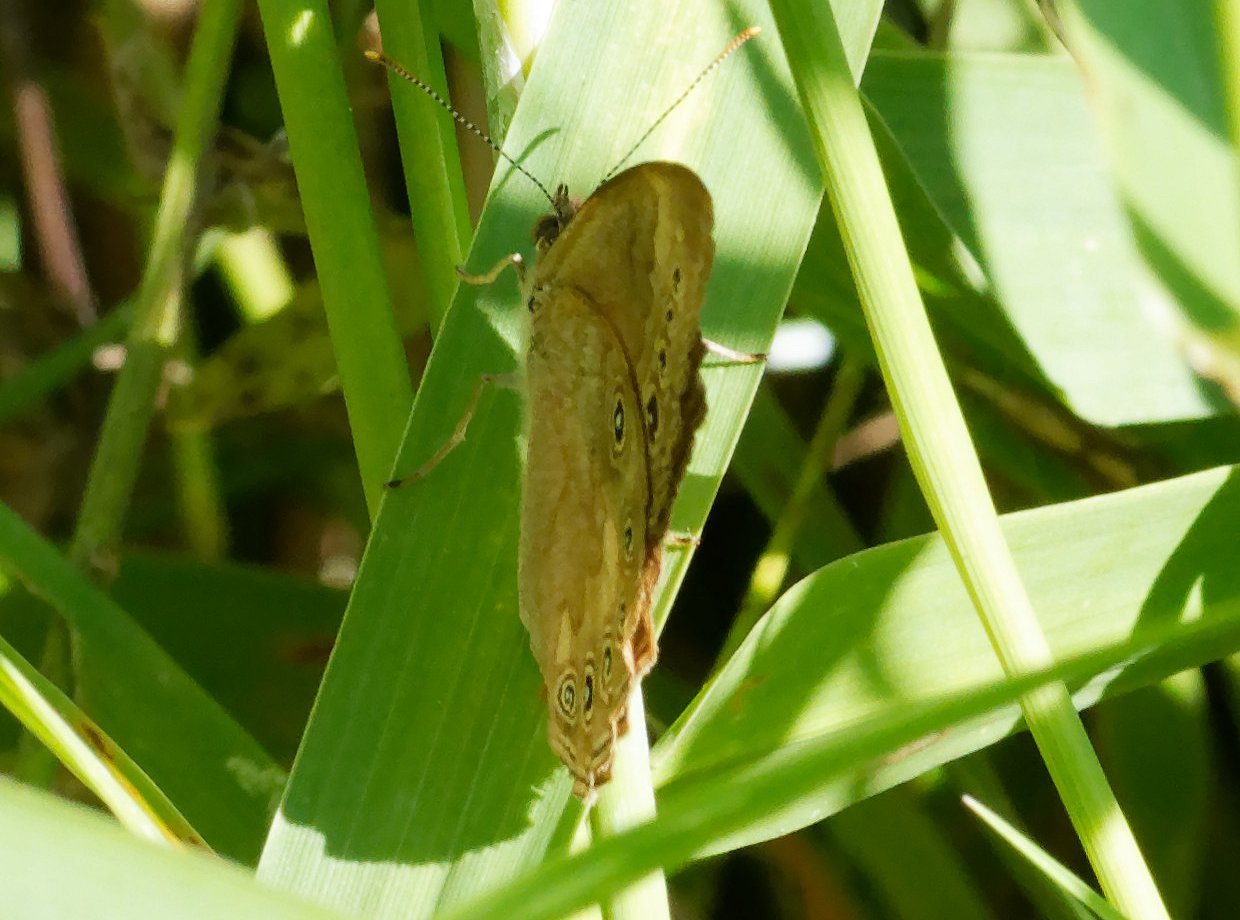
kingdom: Animalia
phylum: Arthropoda
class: Insecta
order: Lepidoptera
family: Nymphalidae
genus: Lethe
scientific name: Lethe eurydice
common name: Eyed Brown
